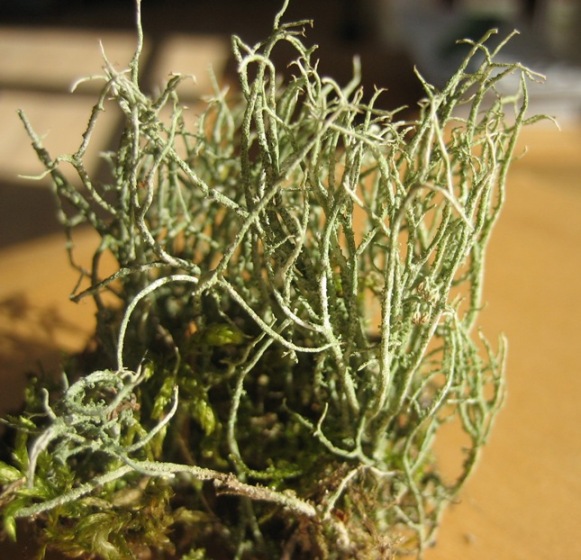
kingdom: Fungi
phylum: Ascomycota
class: Lecanoromycetes
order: Lecanorales
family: Cladoniaceae
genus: Cladonia
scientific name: Cladonia scabriuscula
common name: ru bægerlav
